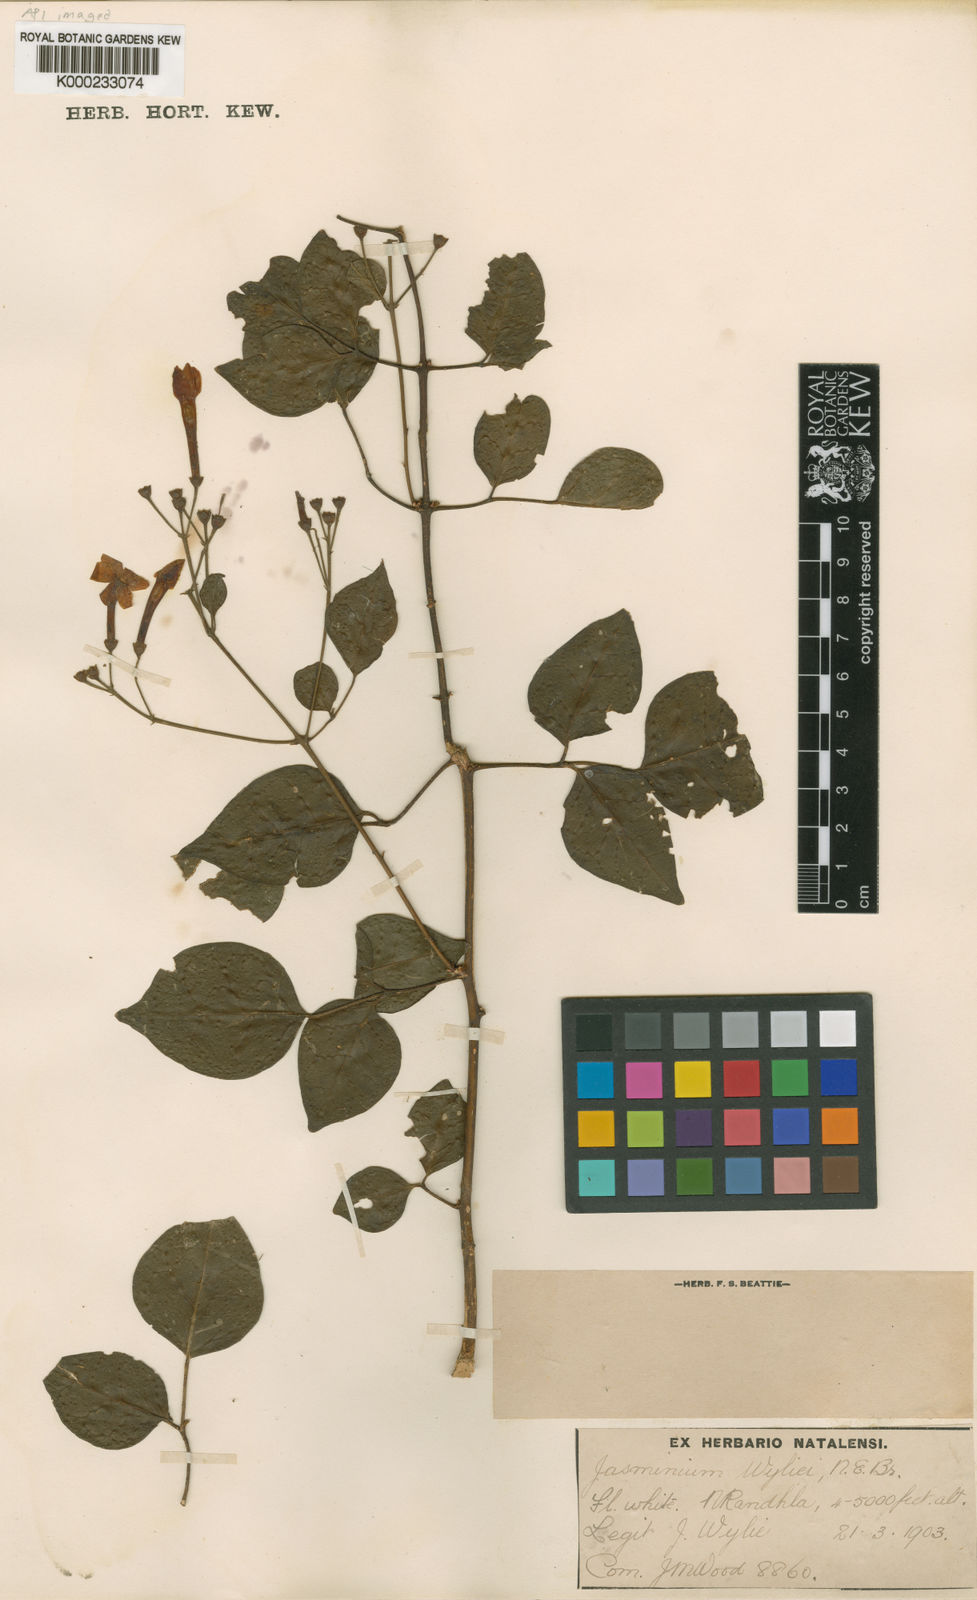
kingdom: Plantae
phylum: Tracheophyta
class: Magnoliopsida
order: Lamiales
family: Oleaceae
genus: Jasminum
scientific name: Jasminum abyssinicum
